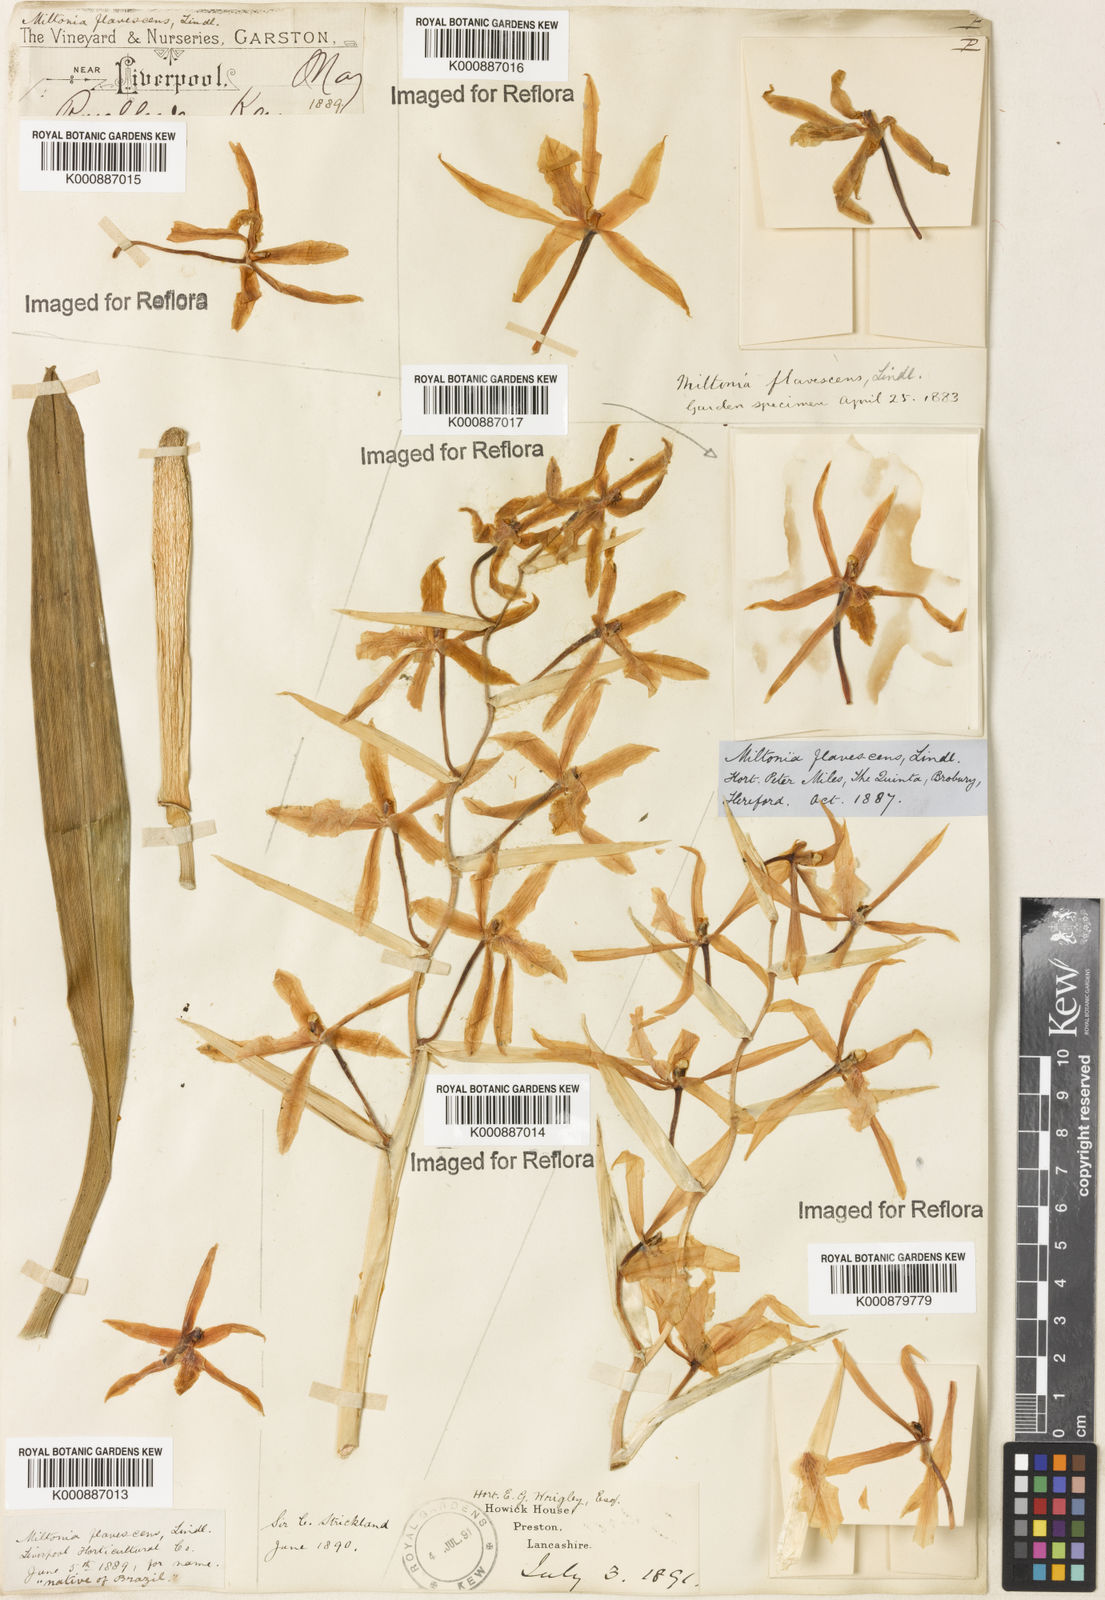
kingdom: Plantae
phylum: Tracheophyta
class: Liliopsida
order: Asparagales
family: Orchidaceae
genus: Miltonia
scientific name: Miltonia flavescens
